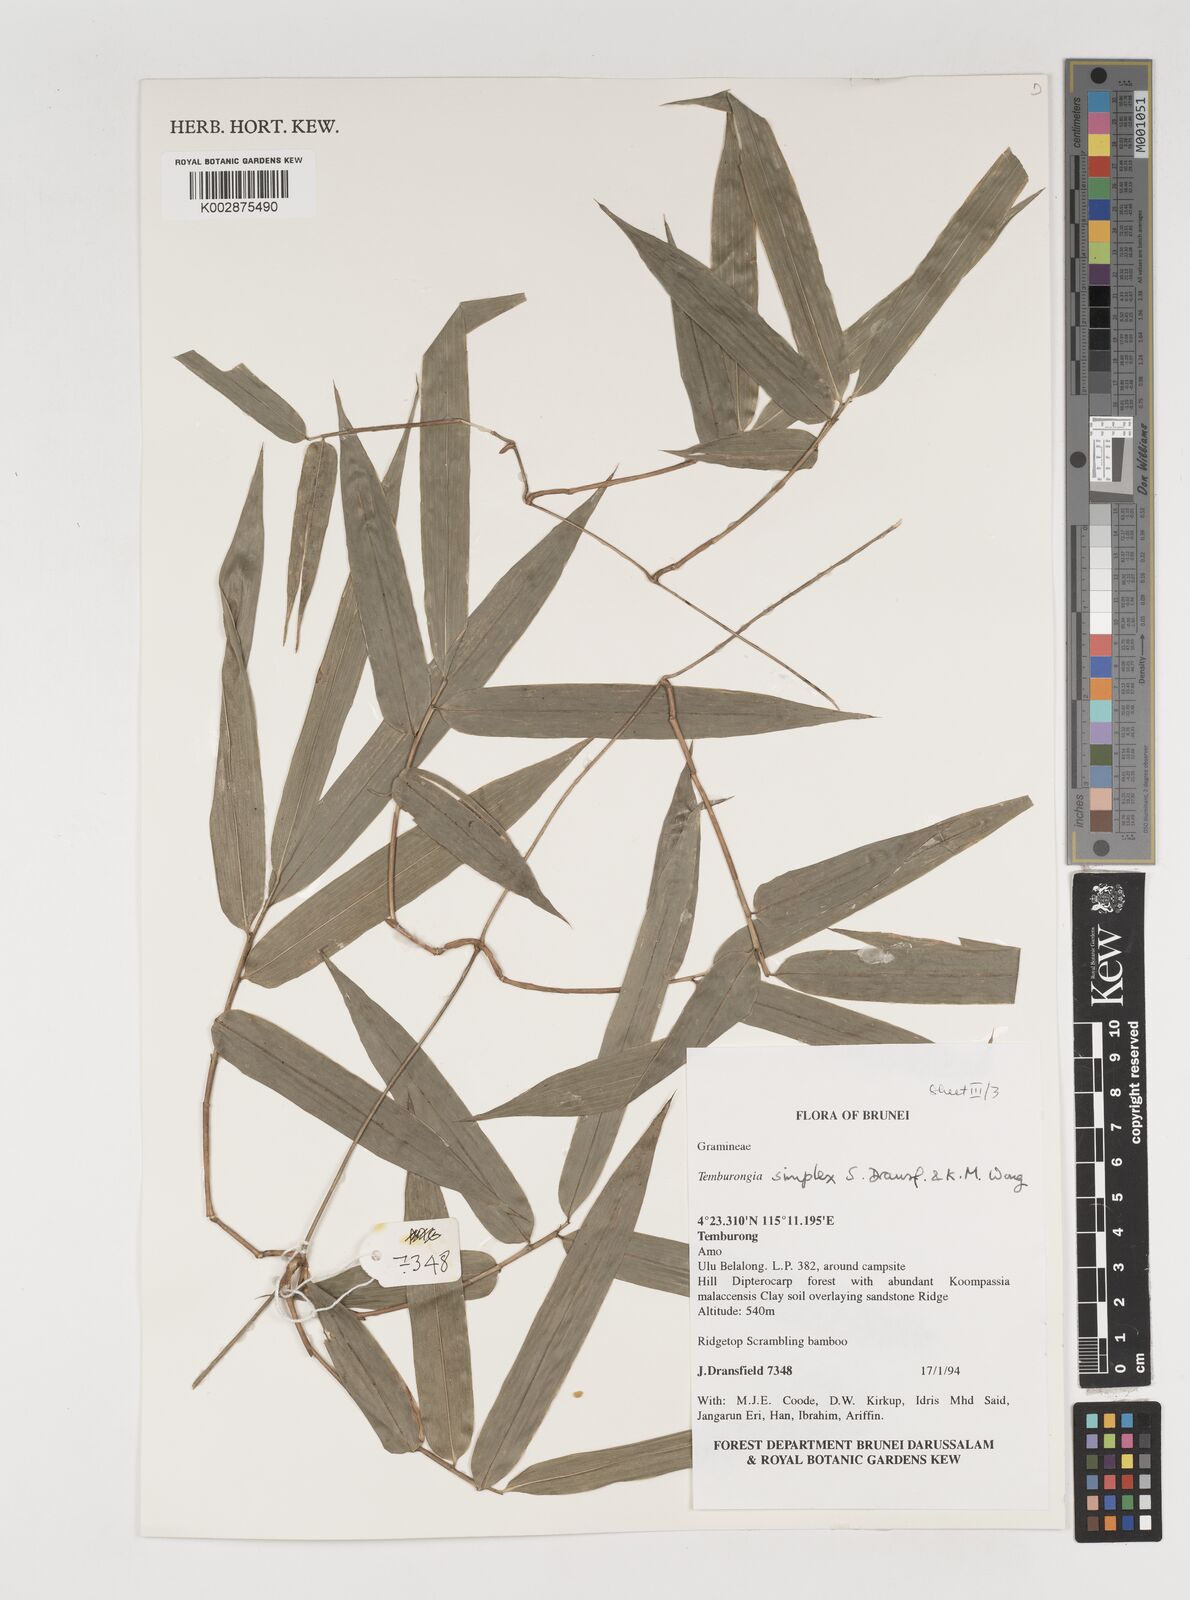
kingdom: Plantae
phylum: Tracheophyta
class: Liliopsida
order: Poales
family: Poaceae
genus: Temburongia
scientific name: Temburongia
